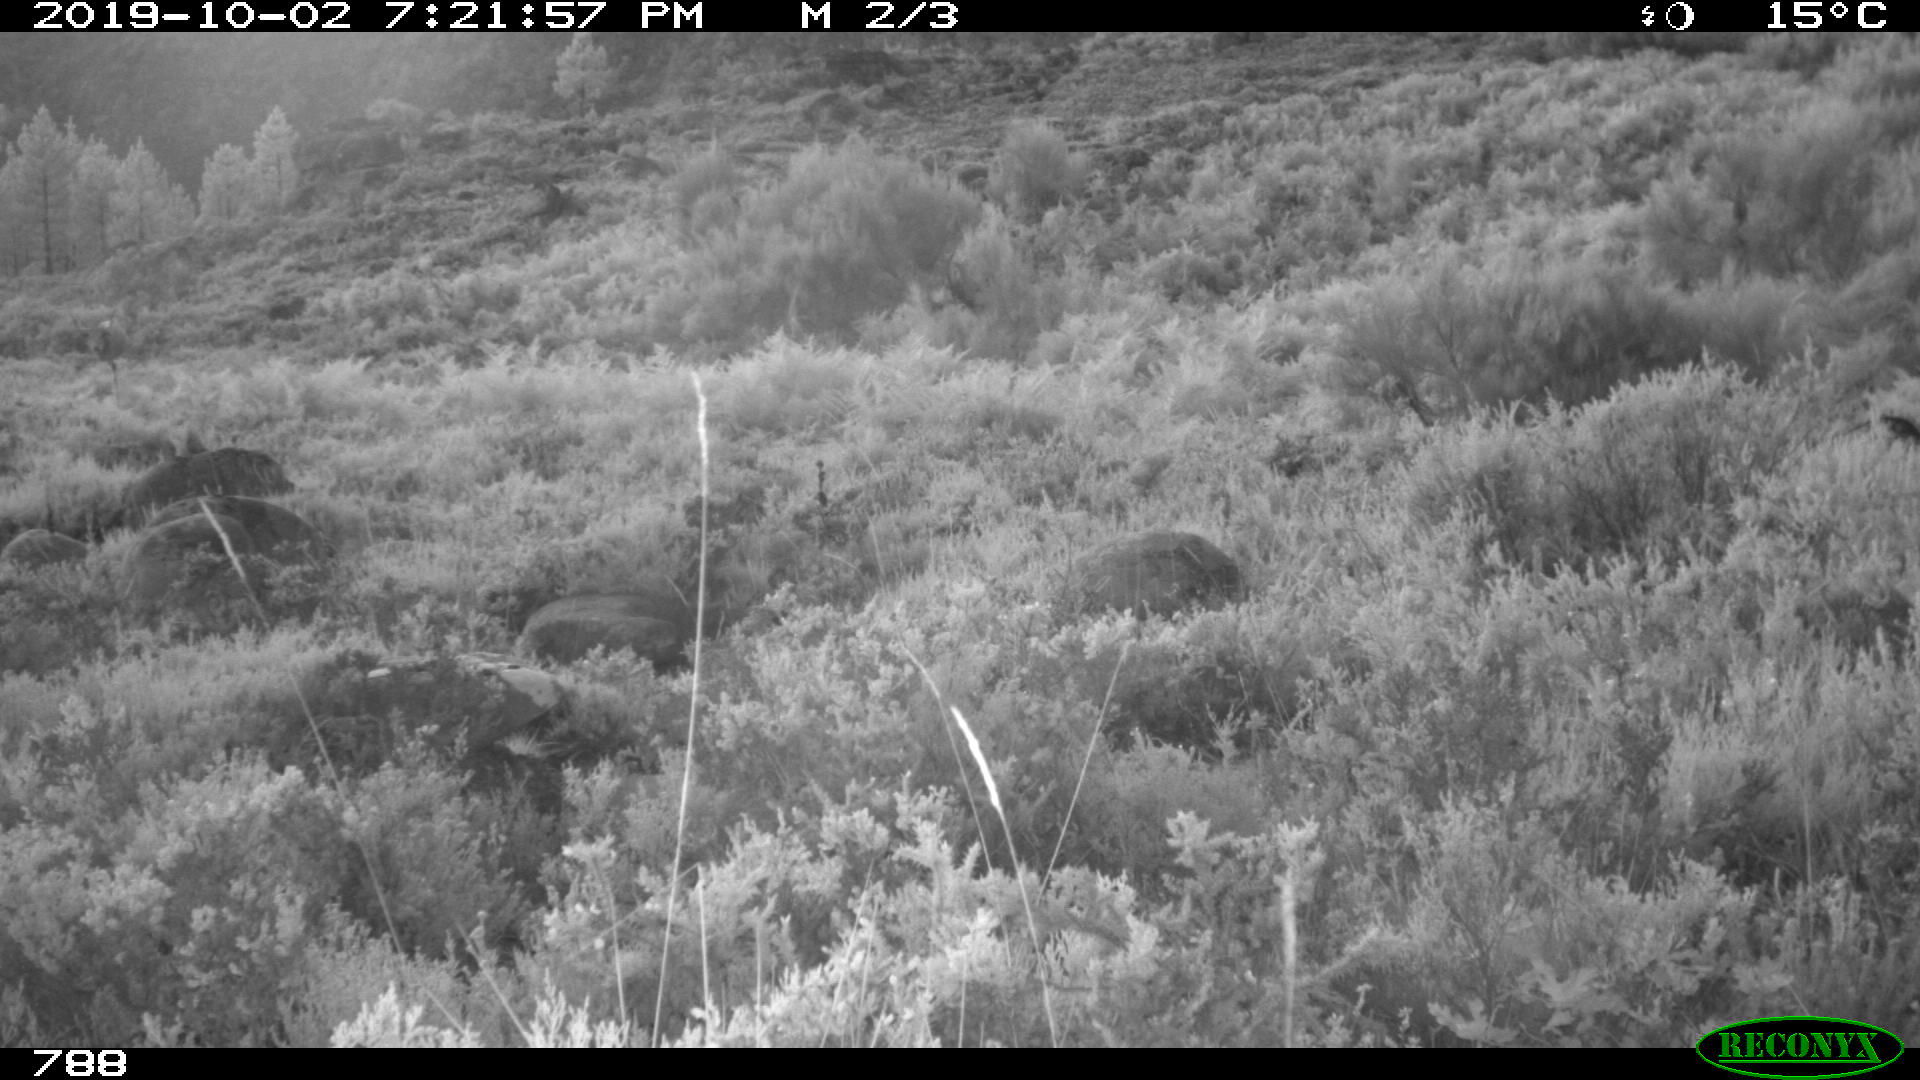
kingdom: Animalia
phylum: Chordata
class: Mammalia
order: Artiodactyla
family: Bovidae
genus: Bos
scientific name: Bos taurus
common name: Domesticated cattle
